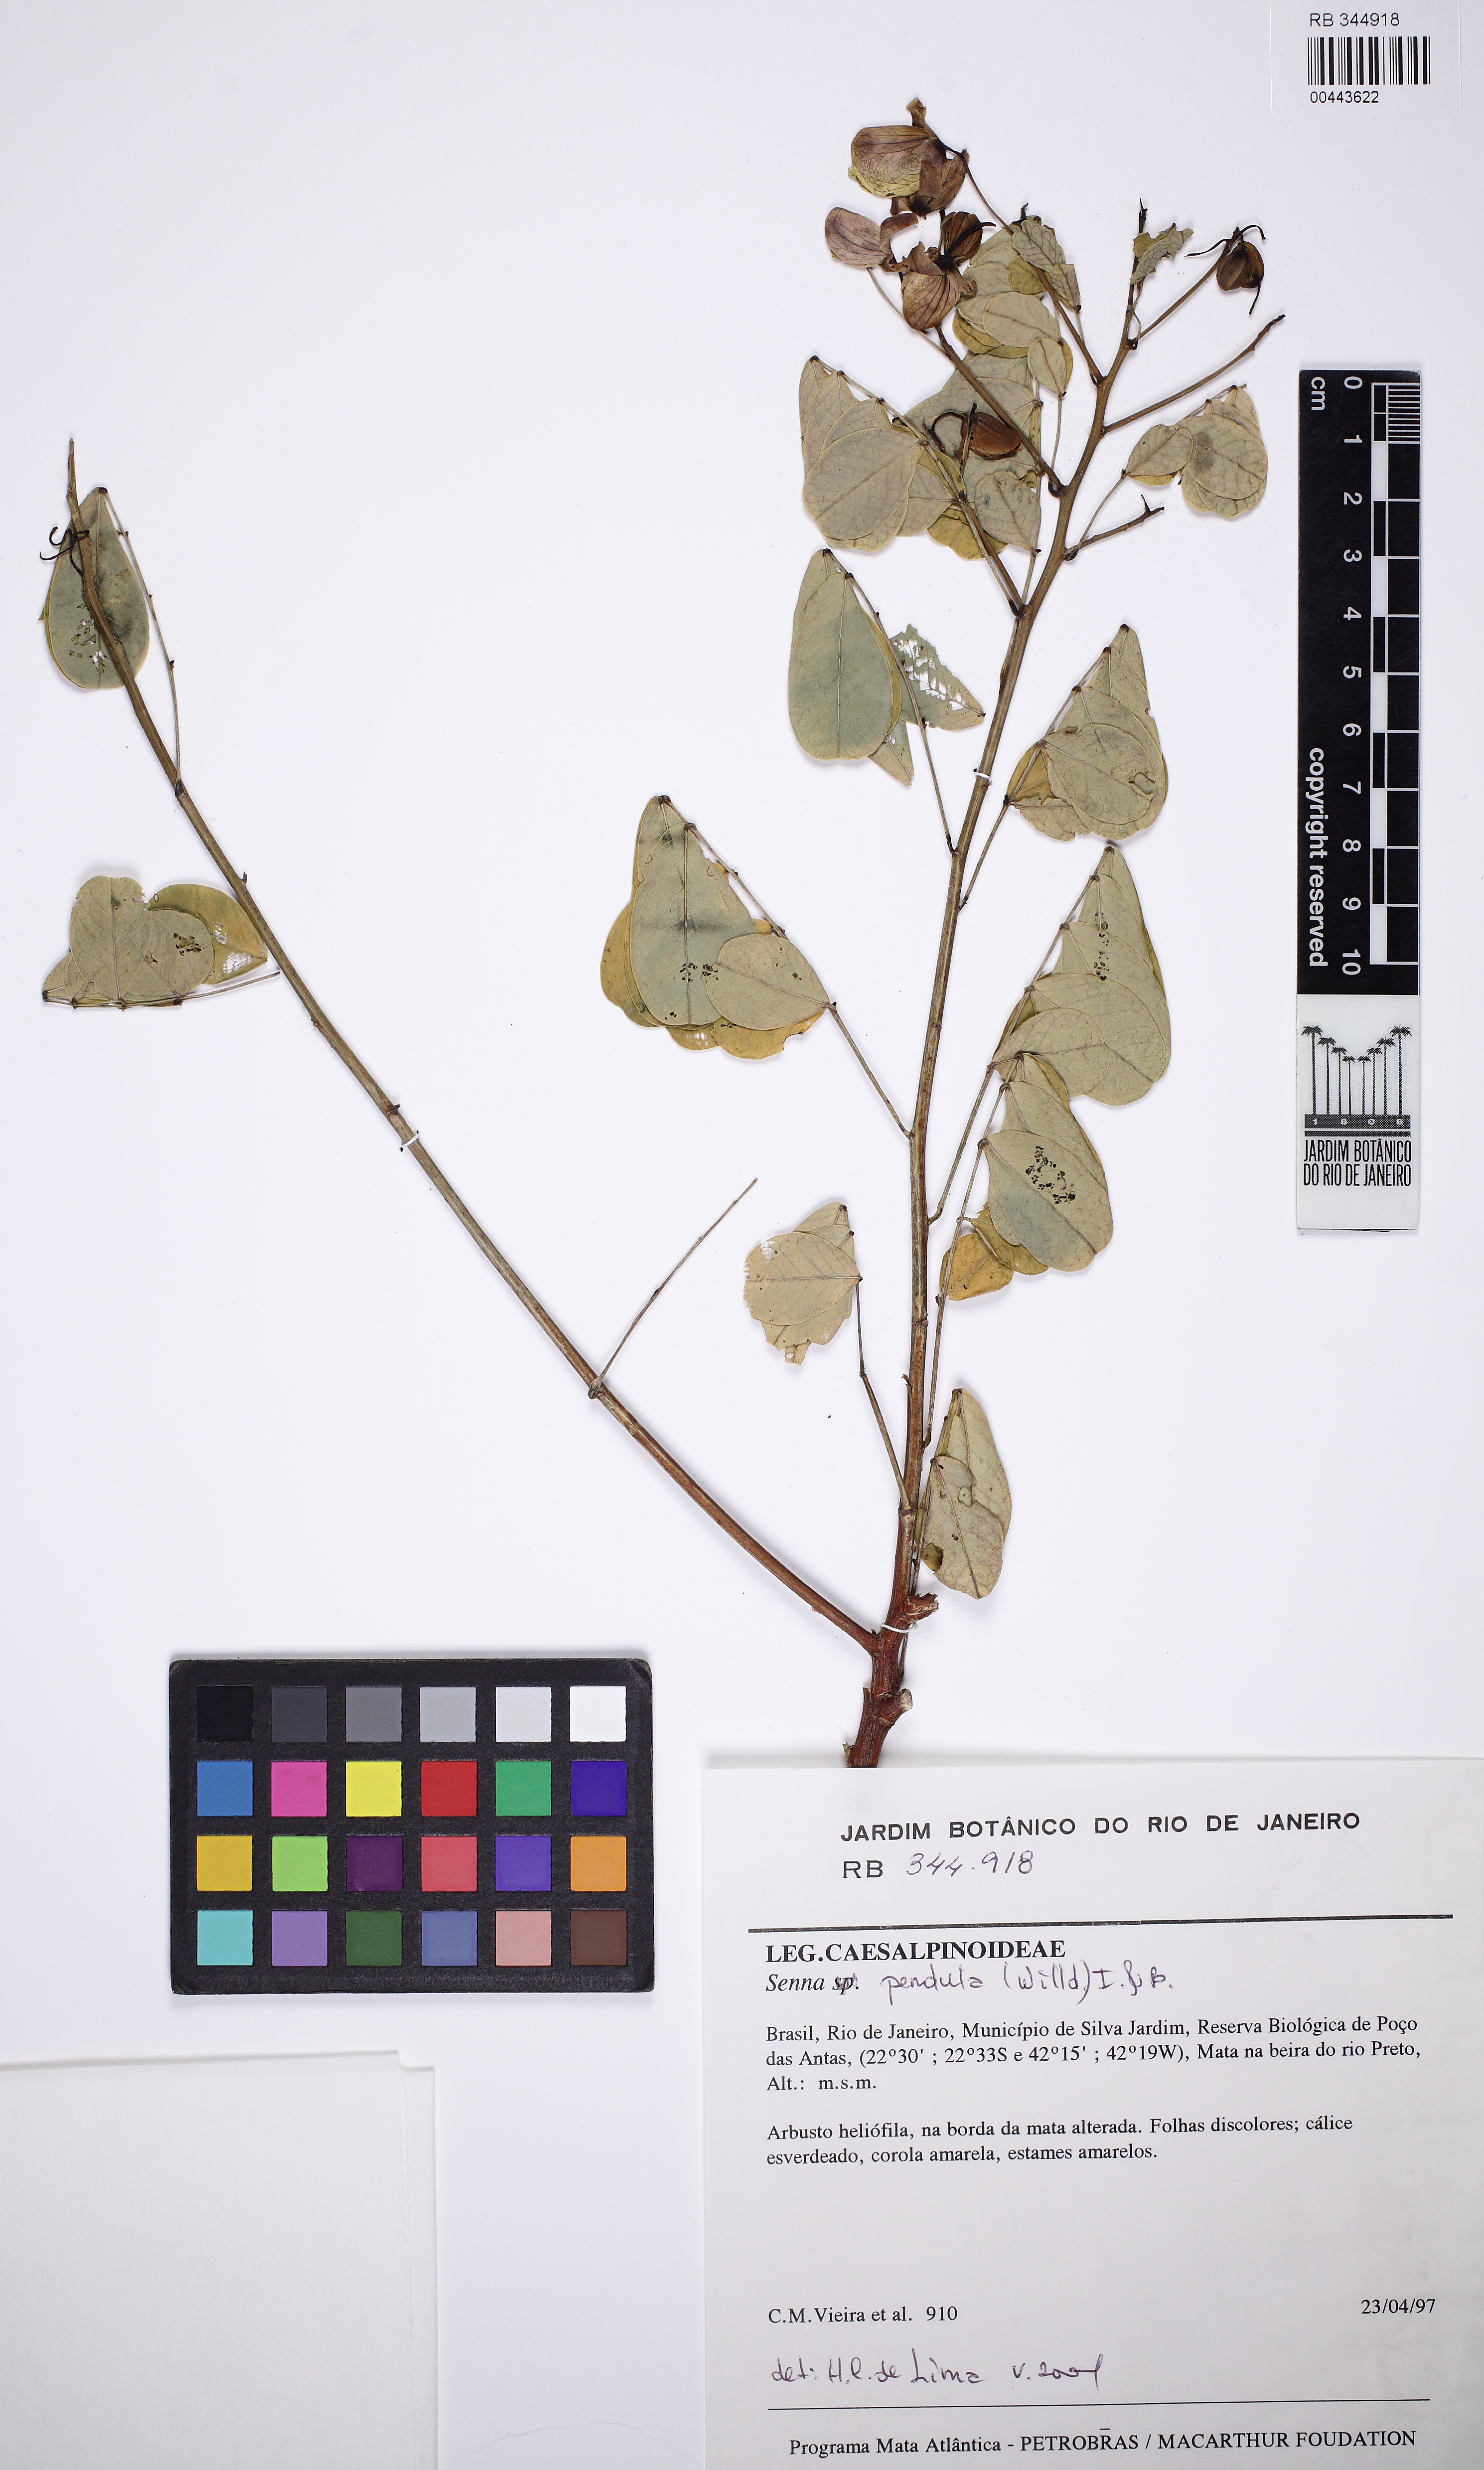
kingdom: Plantae
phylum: Tracheophyta
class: Magnoliopsida
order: Fabales
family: Fabaceae
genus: Senna
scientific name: Senna pendula
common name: Easter cassia
